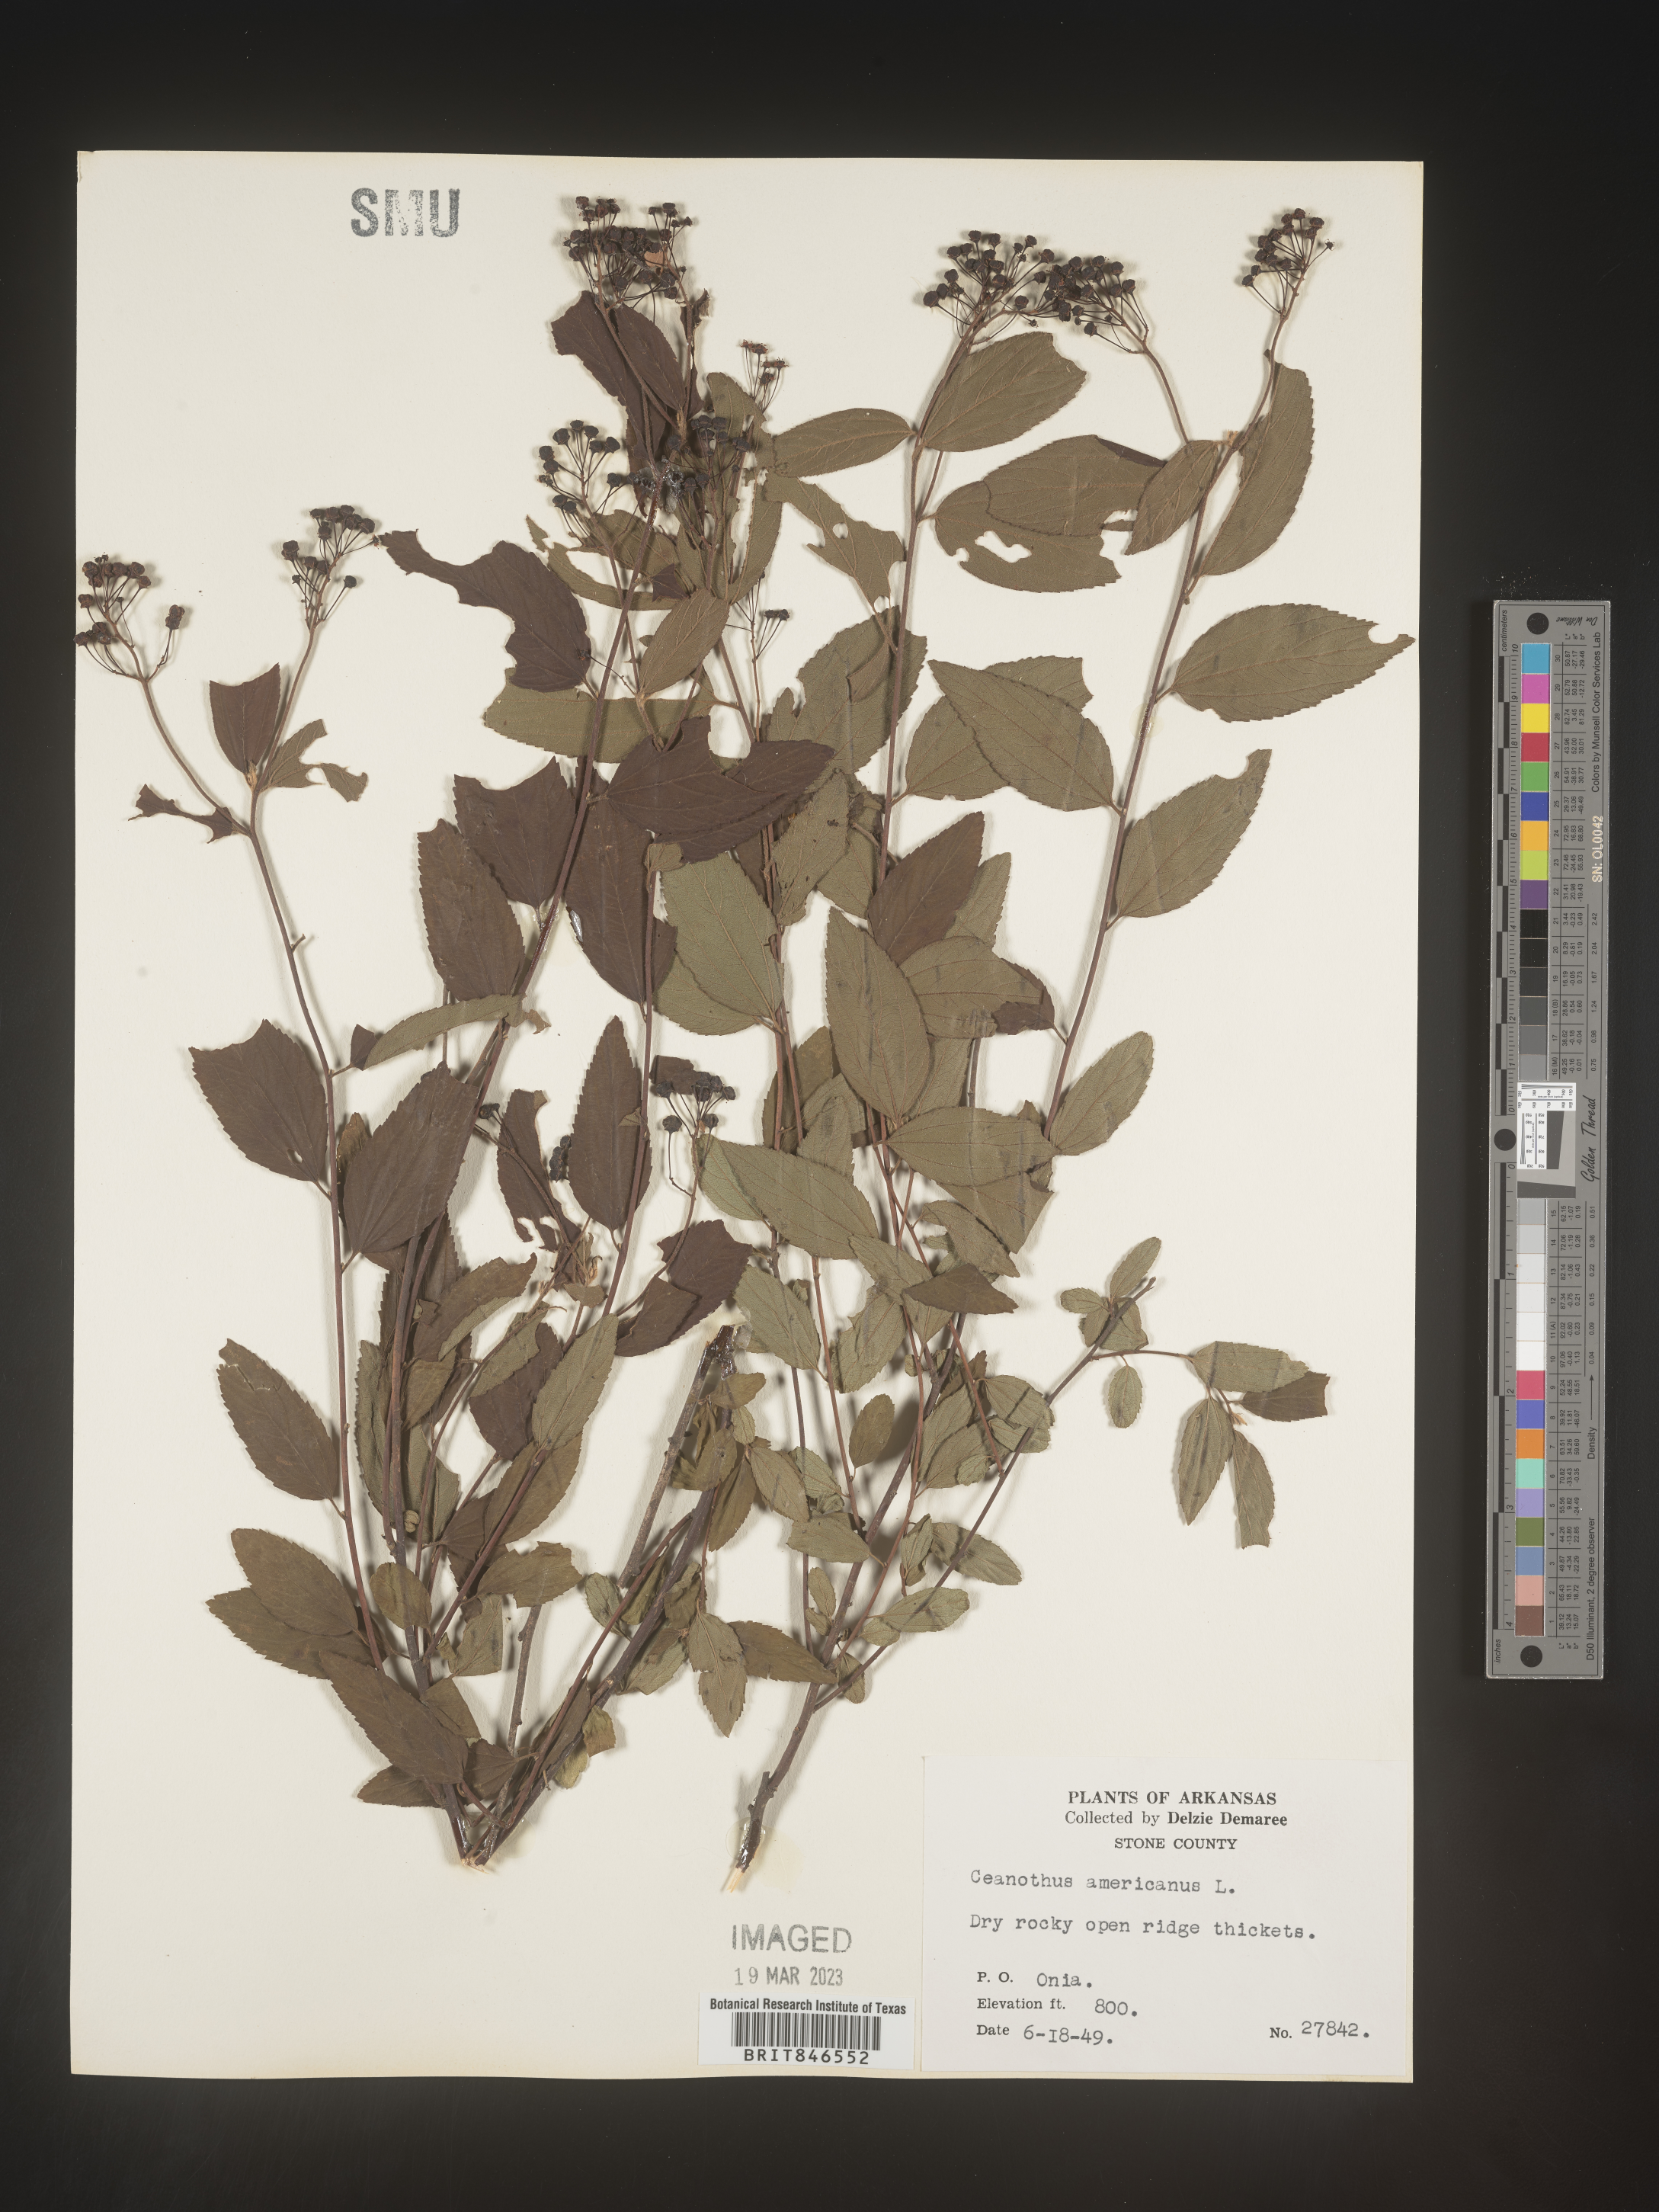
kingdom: Plantae
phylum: Tracheophyta
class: Magnoliopsida
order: Rosales
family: Rhamnaceae
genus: Ceanothus
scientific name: Ceanothus americanus
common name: Redroot
